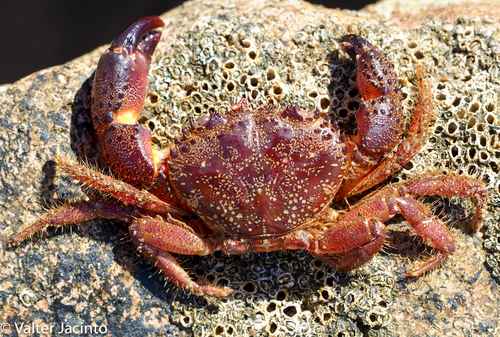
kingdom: Animalia
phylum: Arthropoda
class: Malacostraca
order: Decapoda
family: Eriphiidae
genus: Eriphia
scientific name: Eriphia verrucosa
